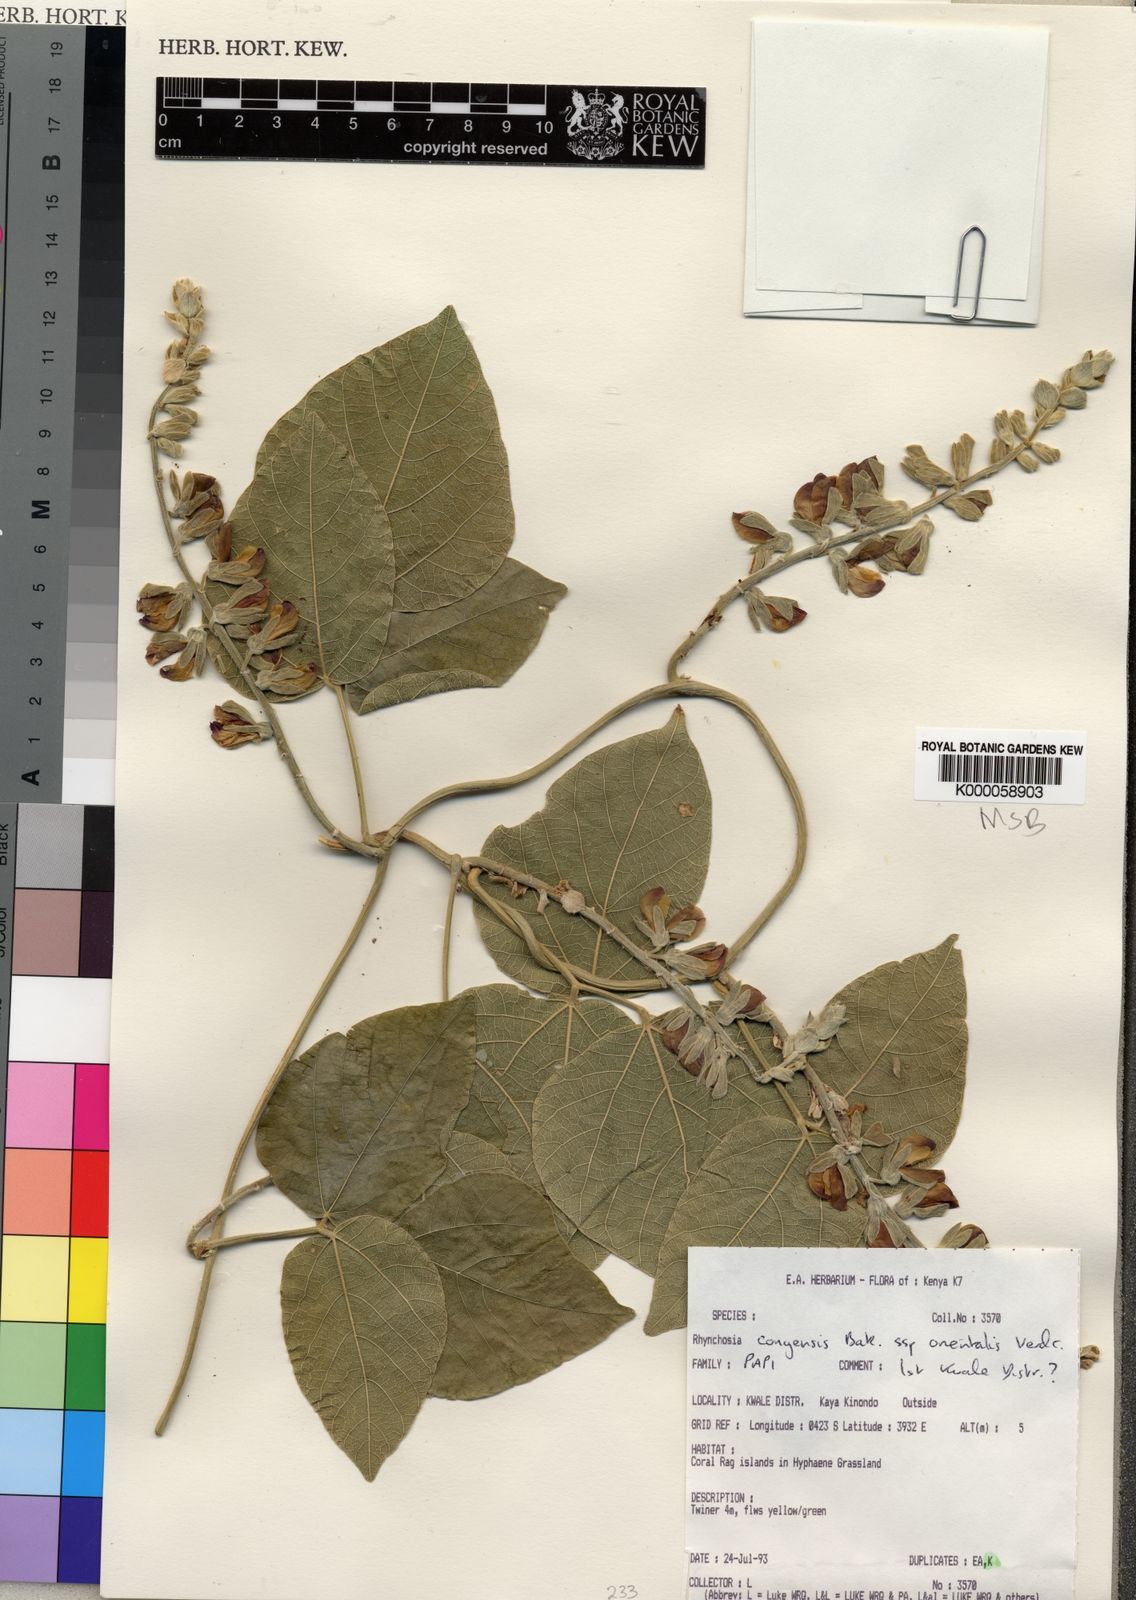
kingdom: Plantae
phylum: Tracheophyta
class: Magnoliopsida
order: Fabales
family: Fabaceae
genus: Rhynchosia
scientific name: Rhynchosia congensis
